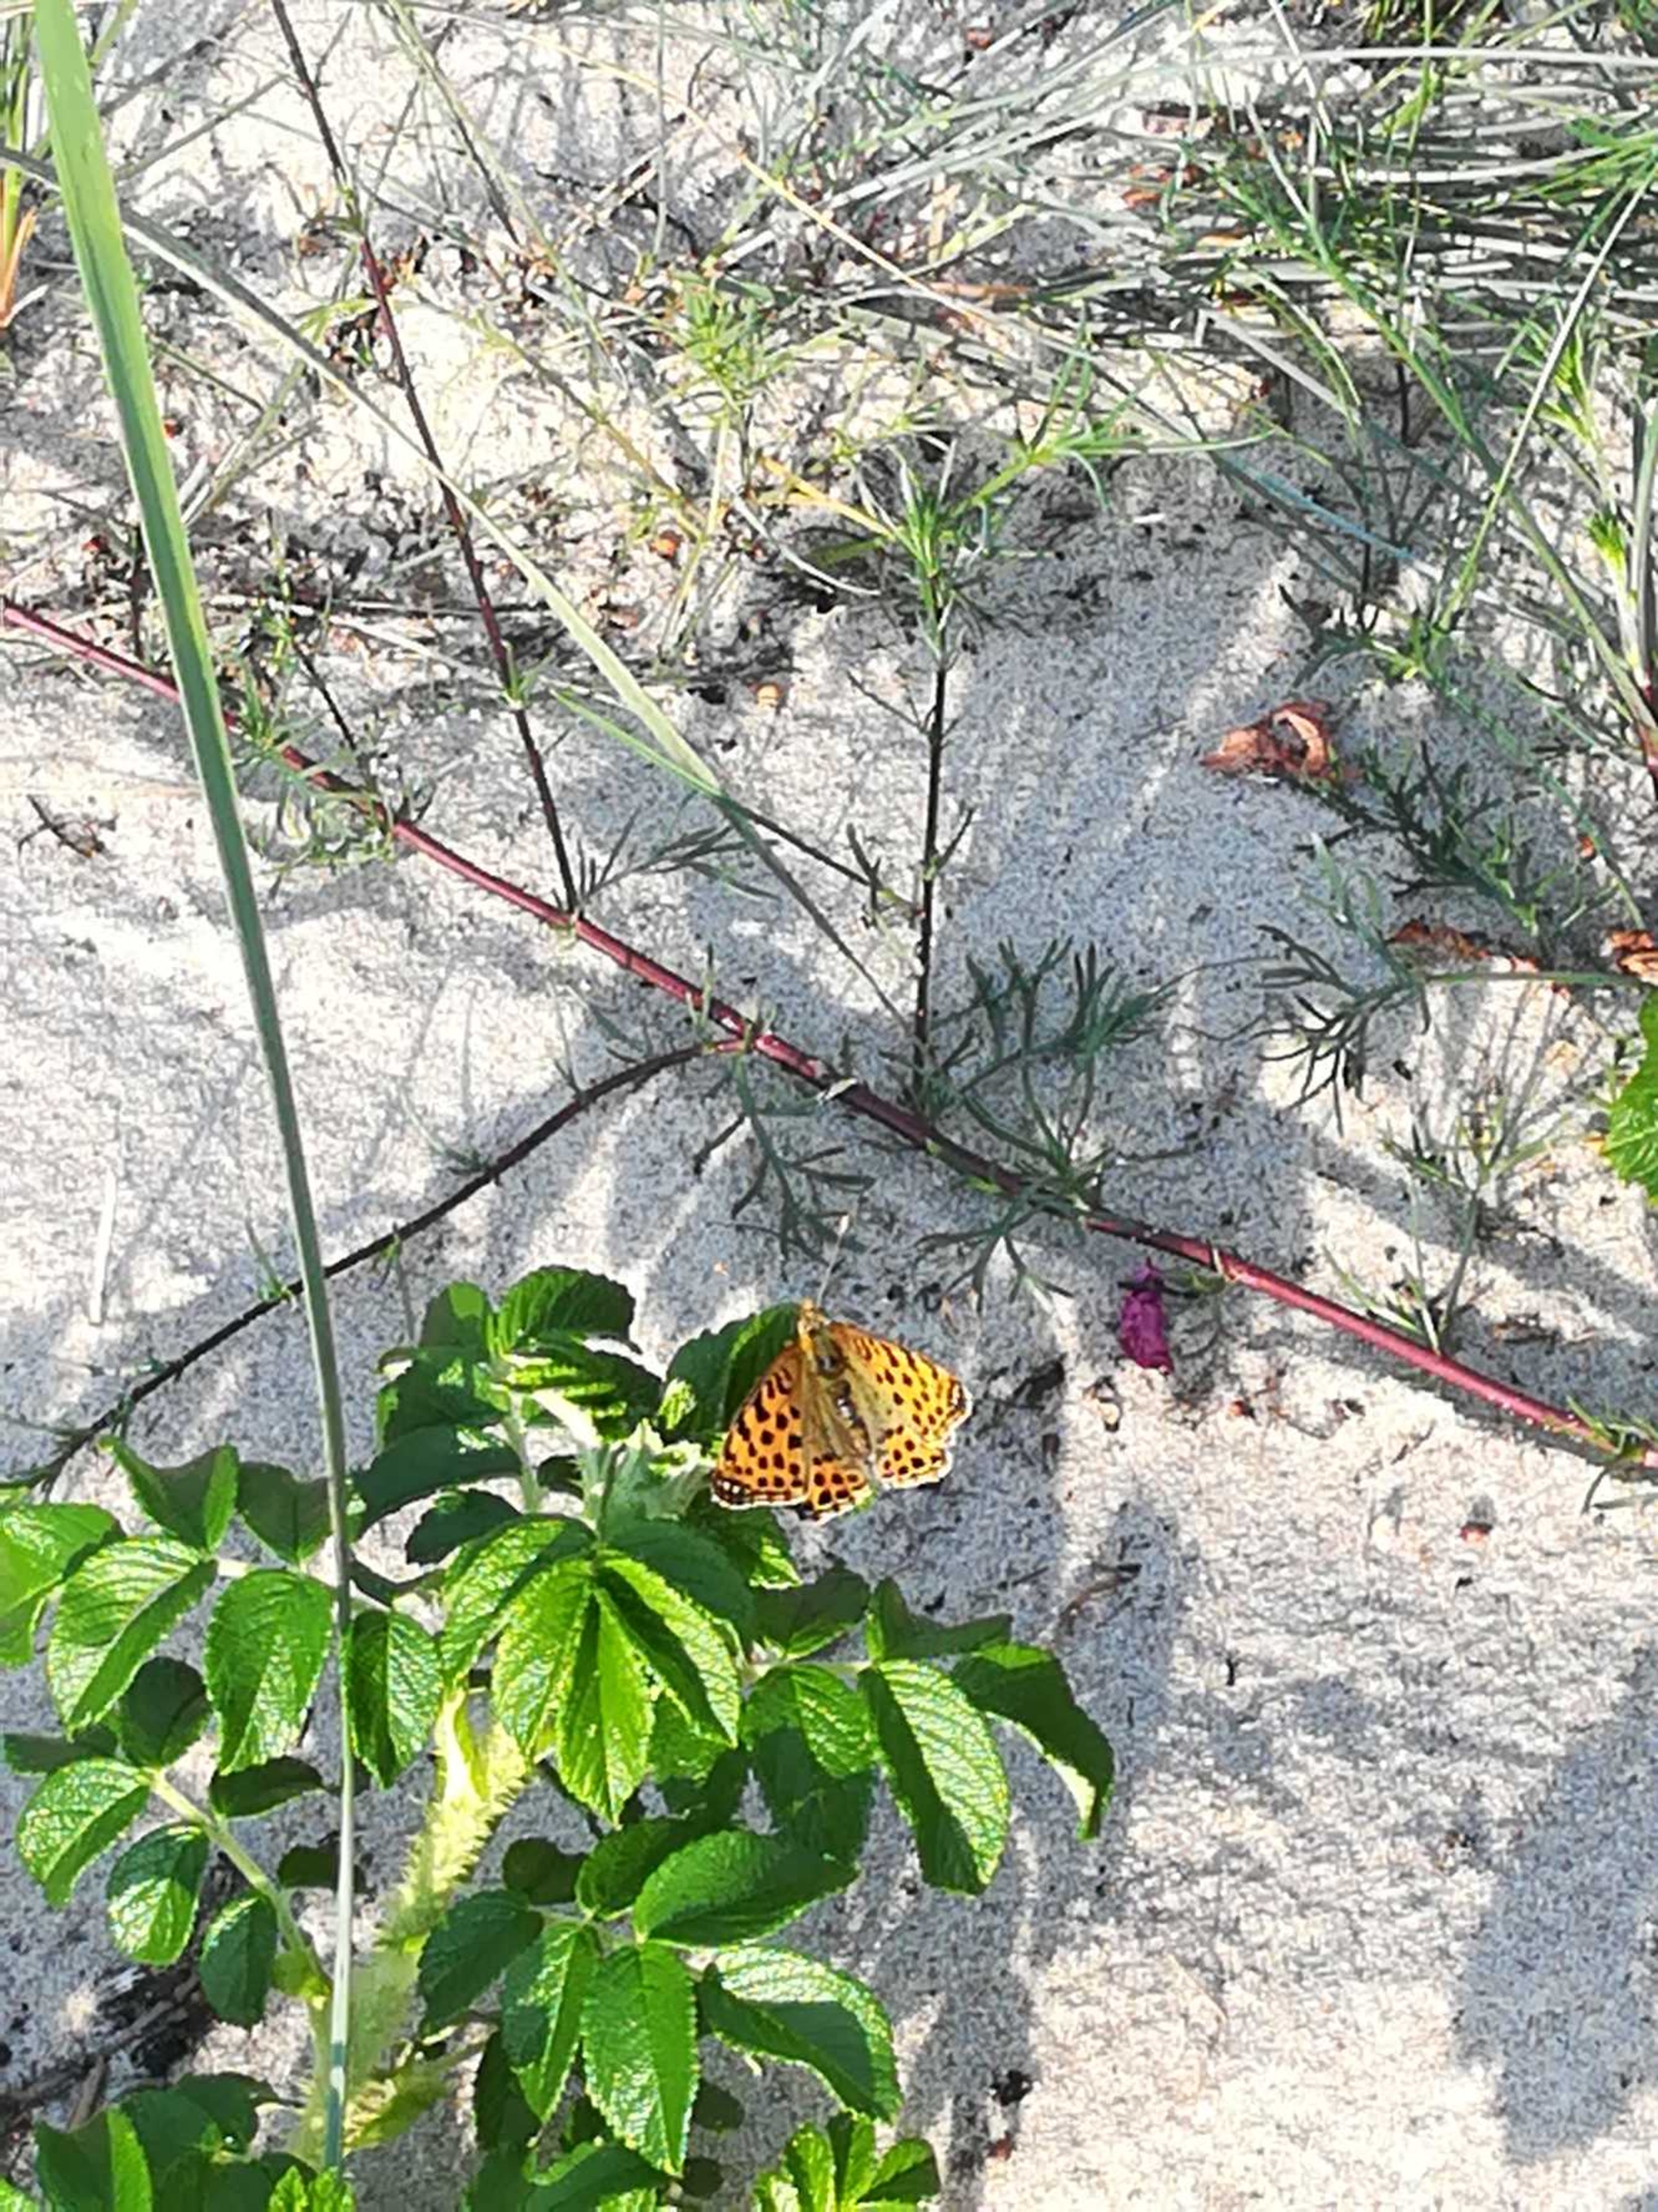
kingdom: Animalia
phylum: Arthropoda
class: Insecta
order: Lepidoptera
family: Nymphalidae
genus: Issoria
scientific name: Issoria lathonia
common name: Storplettet perlemorsommerfugl
